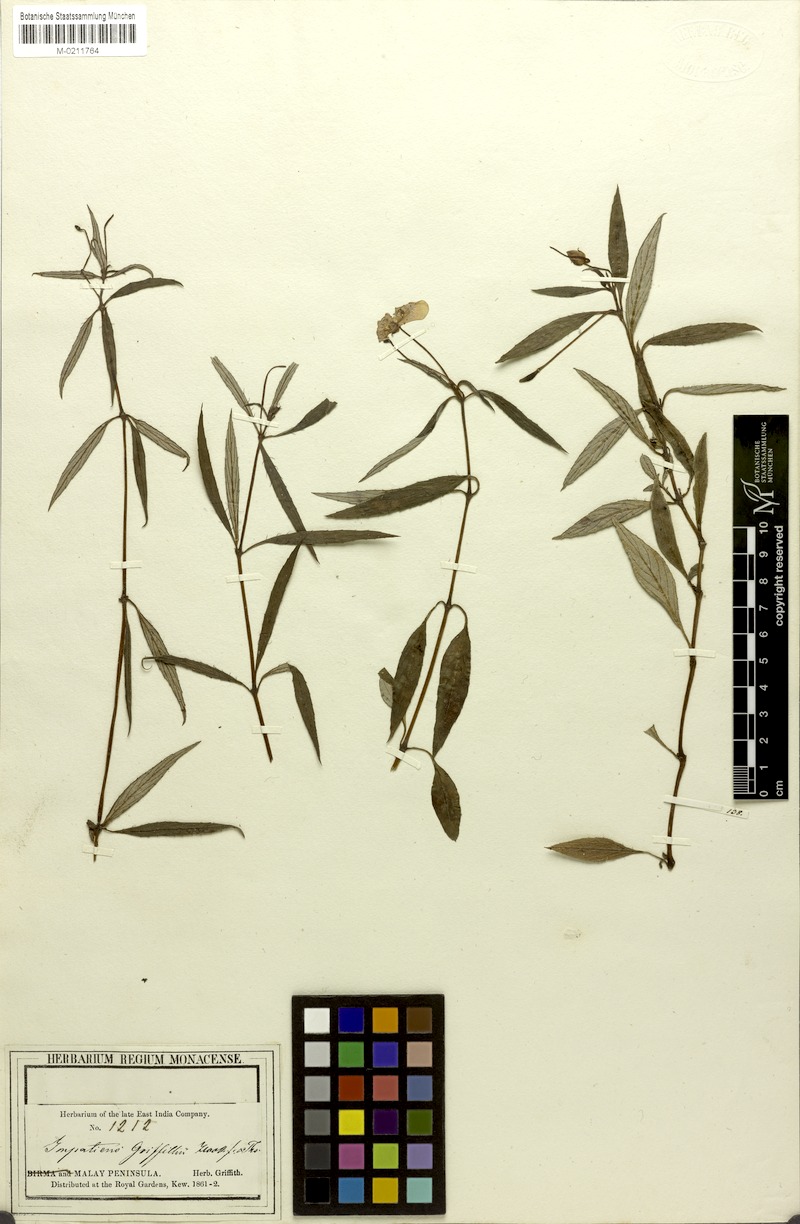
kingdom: Plantae
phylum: Tracheophyta
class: Magnoliopsida
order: Ericales
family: Balsaminaceae
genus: Impatiens
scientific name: Impatiens griffithii
